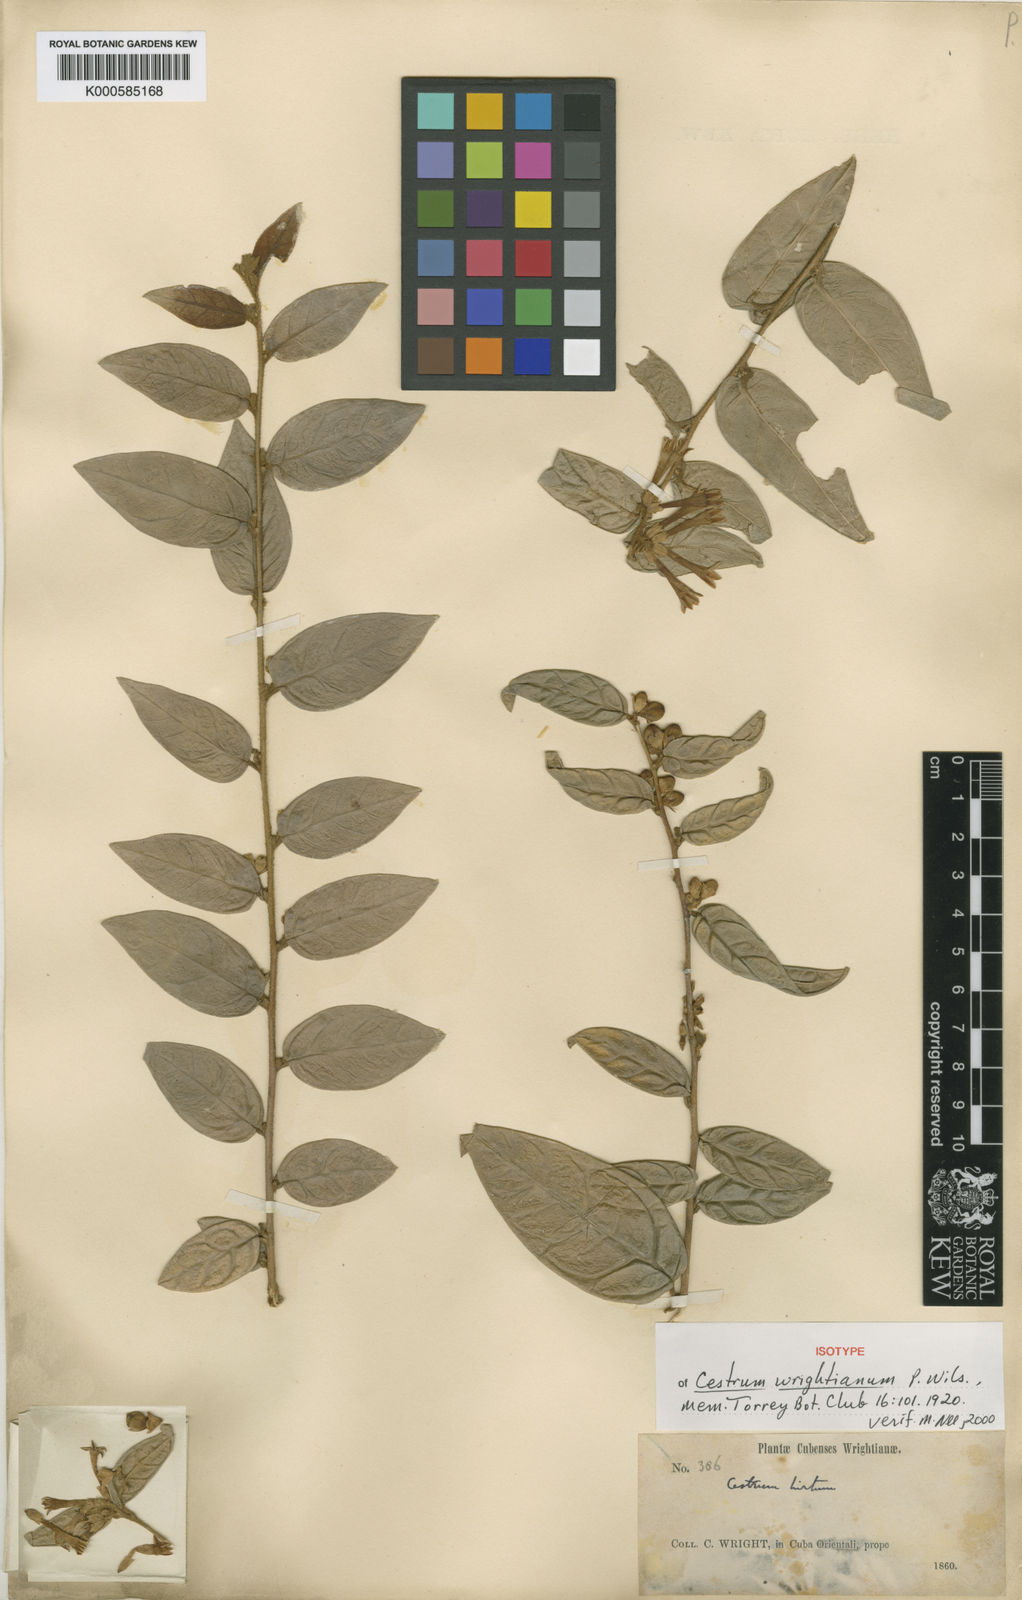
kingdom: Plantae
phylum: Tracheophyta
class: Magnoliopsida
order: Solanales
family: Solanaceae
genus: Cestrum
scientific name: Cestrum
